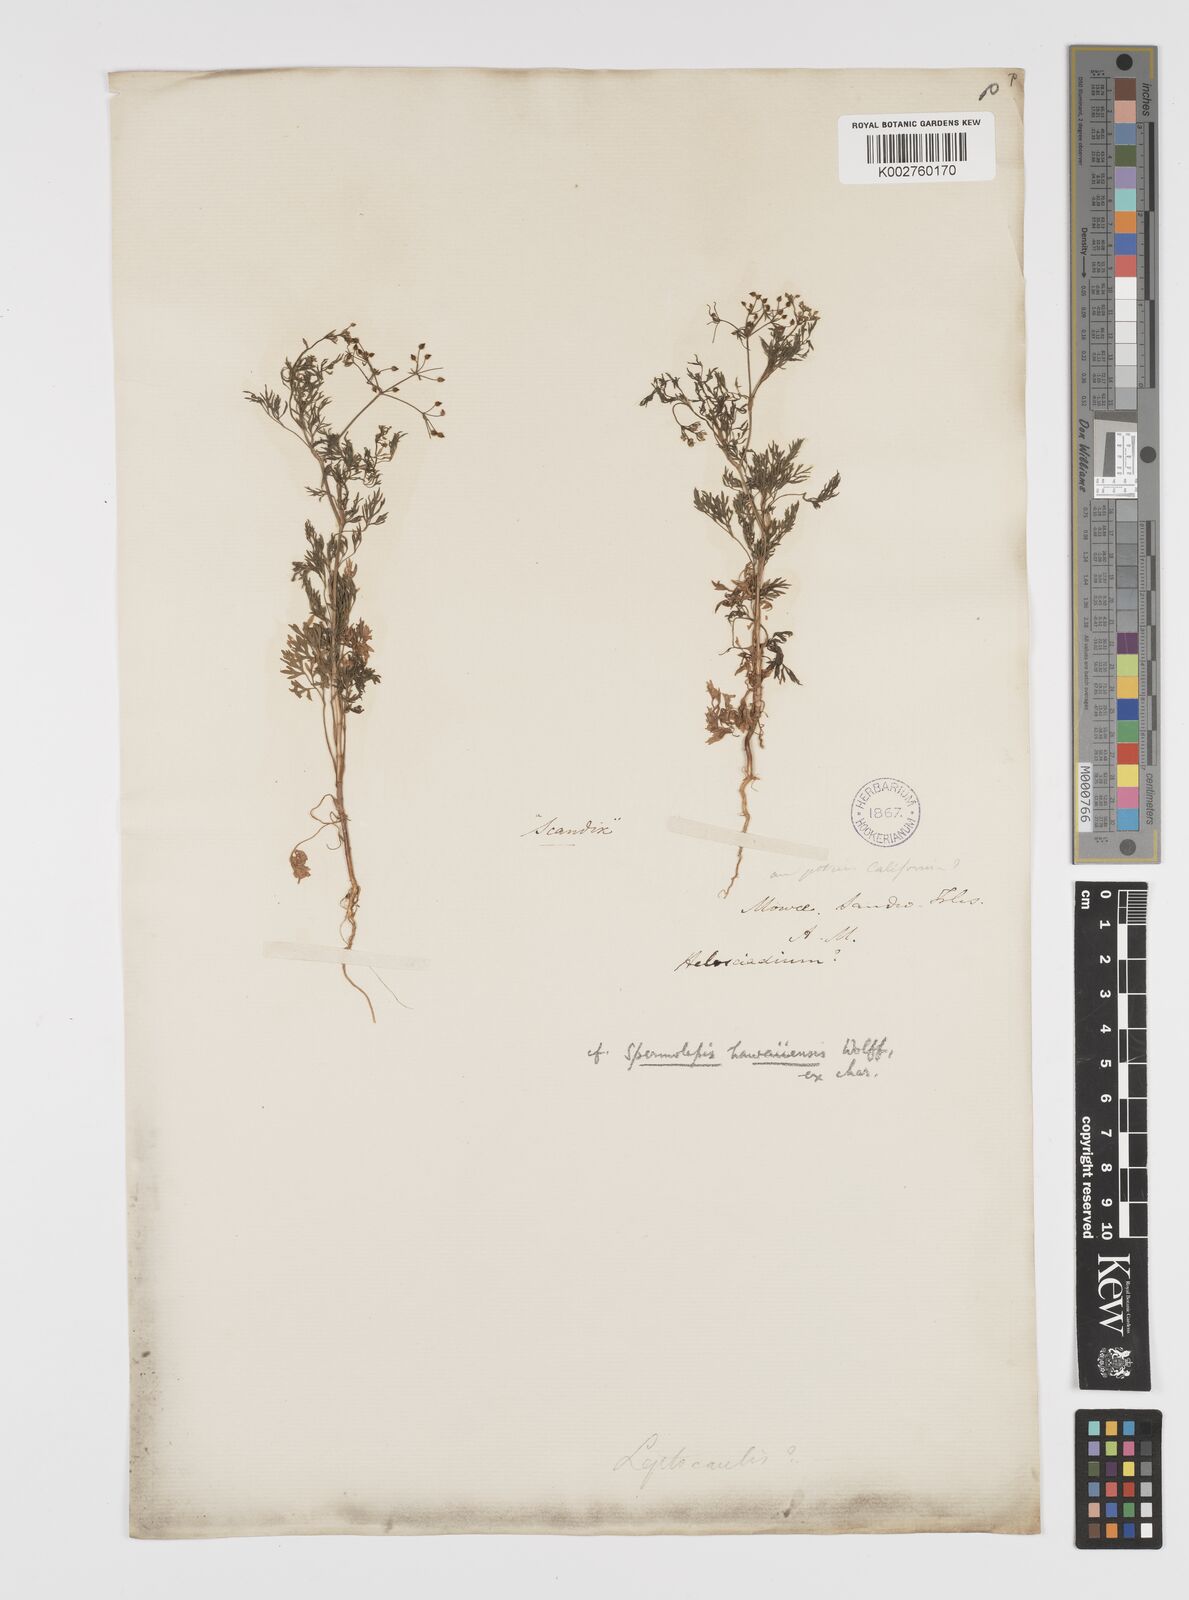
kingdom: Plantae
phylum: Tracheophyta
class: Magnoliopsida
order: Apiales
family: Apiaceae
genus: Spermolepis
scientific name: Spermolepis hawaiiensis
